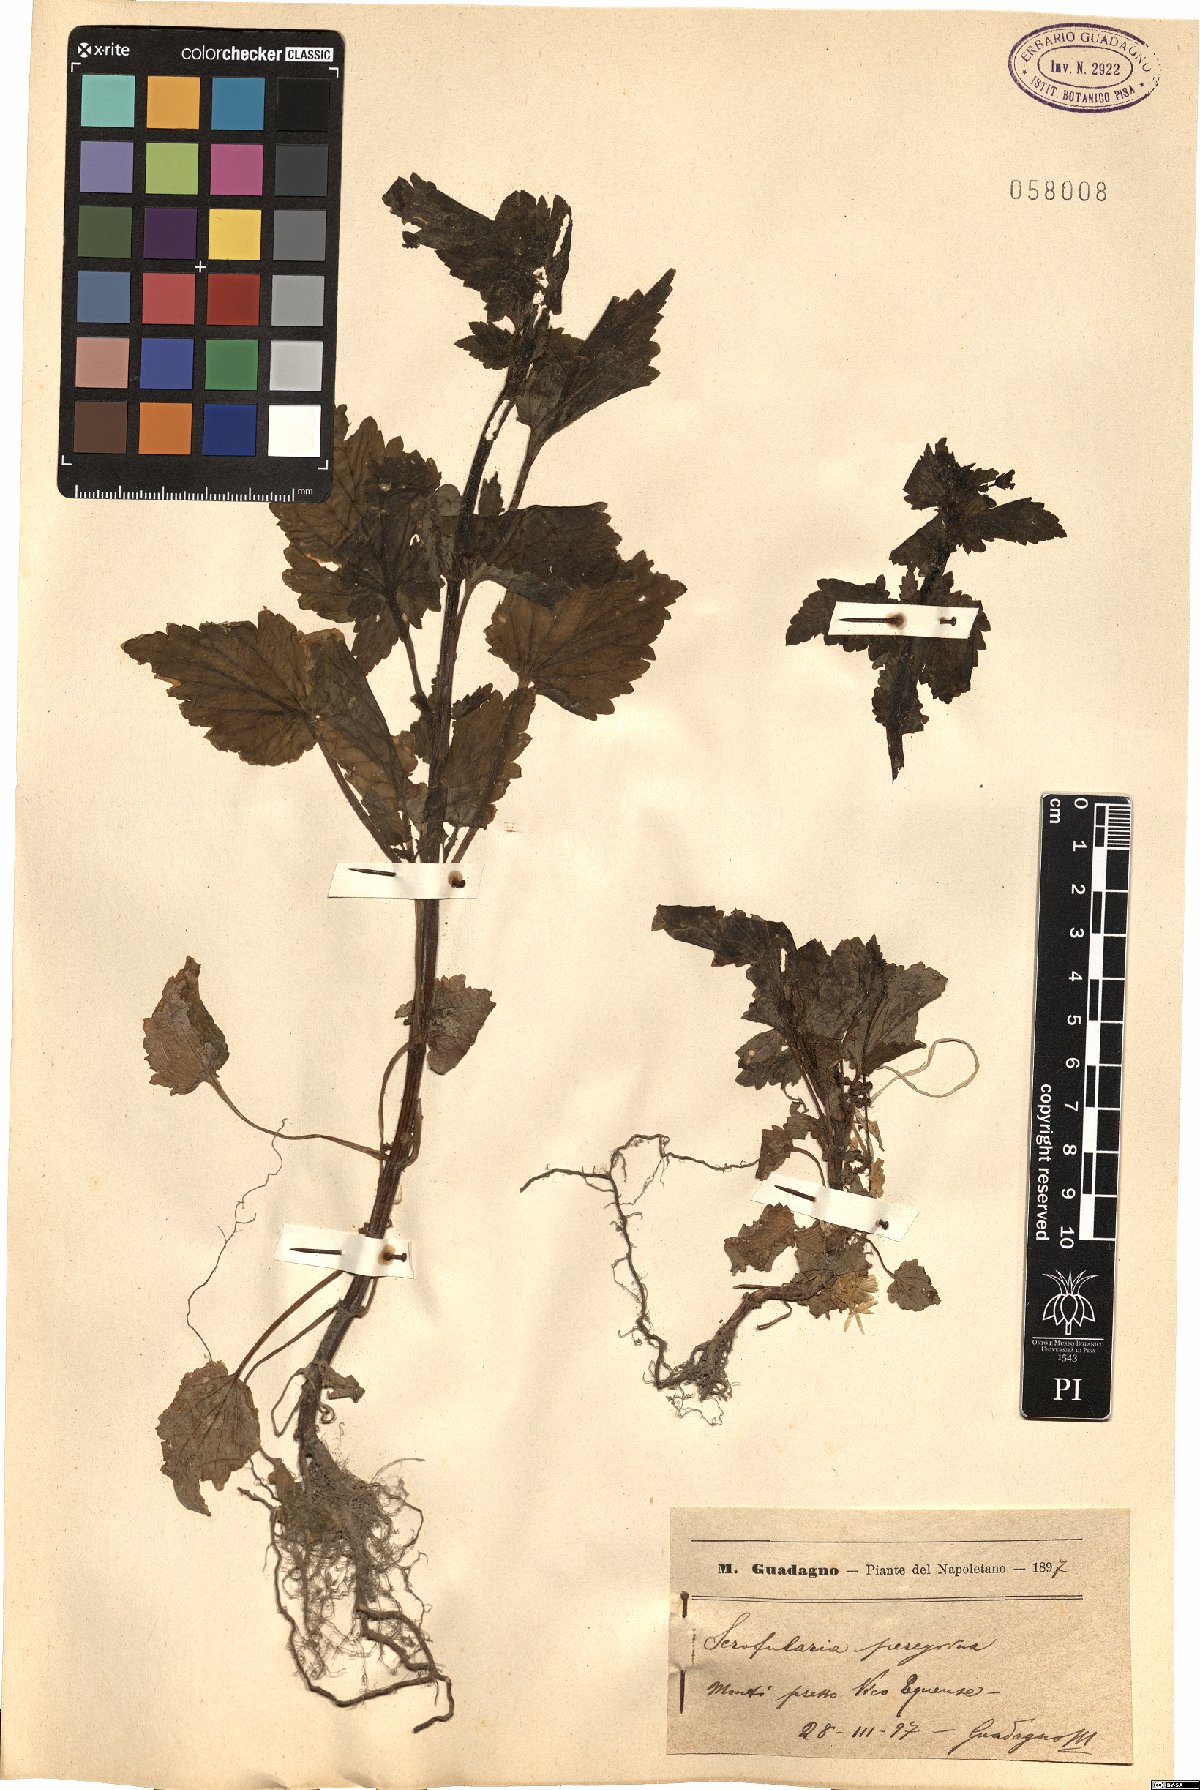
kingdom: Plantae
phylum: Tracheophyta
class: Magnoliopsida
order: Lamiales
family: Scrophulariaceae
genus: Scrophularia
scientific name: Scrophularia peregrina
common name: Mediterranean figwort
